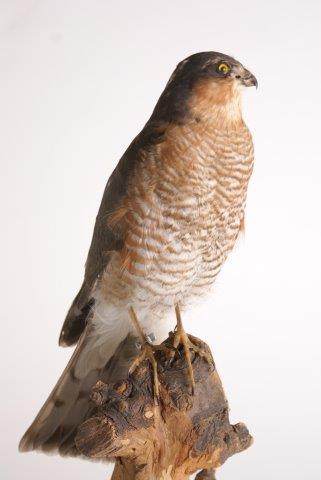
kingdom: Animalia
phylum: Chordata
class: Aves
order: Accipitriformes
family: Accipitridae
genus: Accipiter
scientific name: Accipiter nisus
